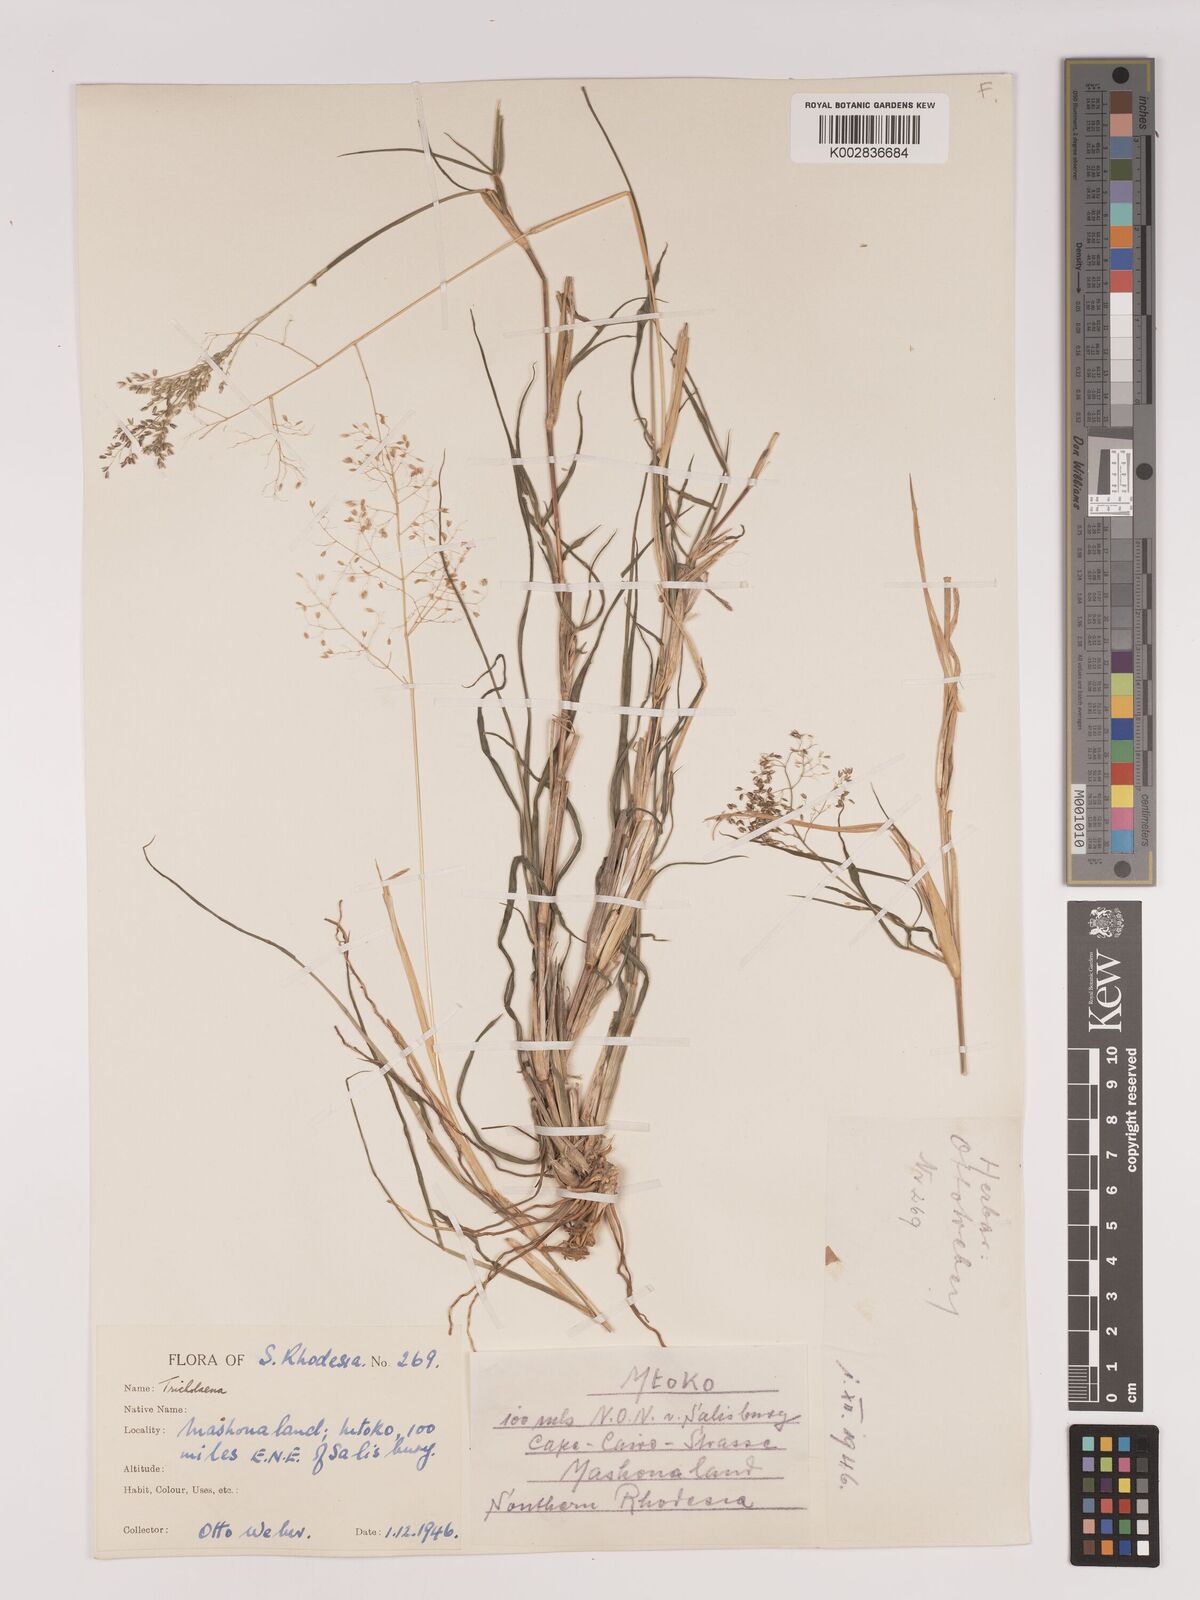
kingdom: Plantae
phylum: Tracheophyta
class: Liliopsida
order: Poales
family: Poaceae
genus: Tricholaena
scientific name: Tricholaena monachne
